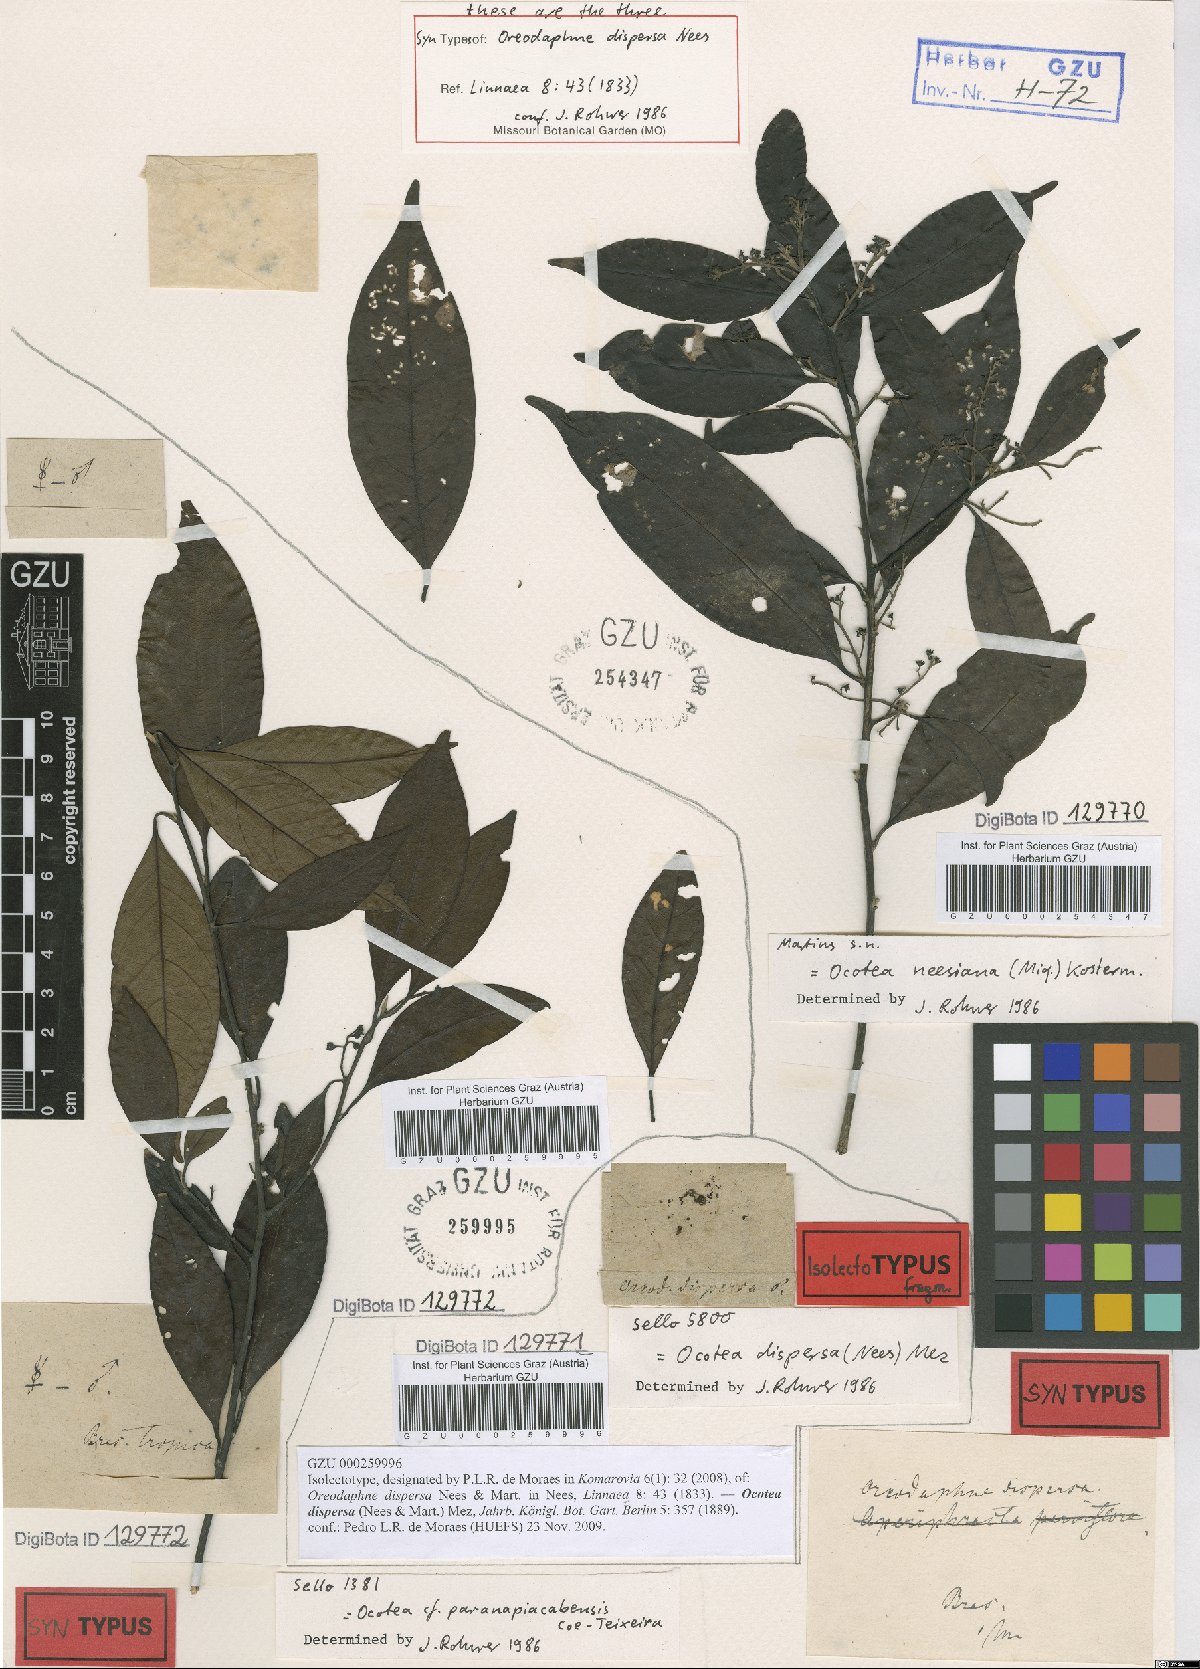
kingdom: Plantae
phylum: Tracheophyta
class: Magnoliopsida
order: Laurales
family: Lauraceae
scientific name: Lauraceae
